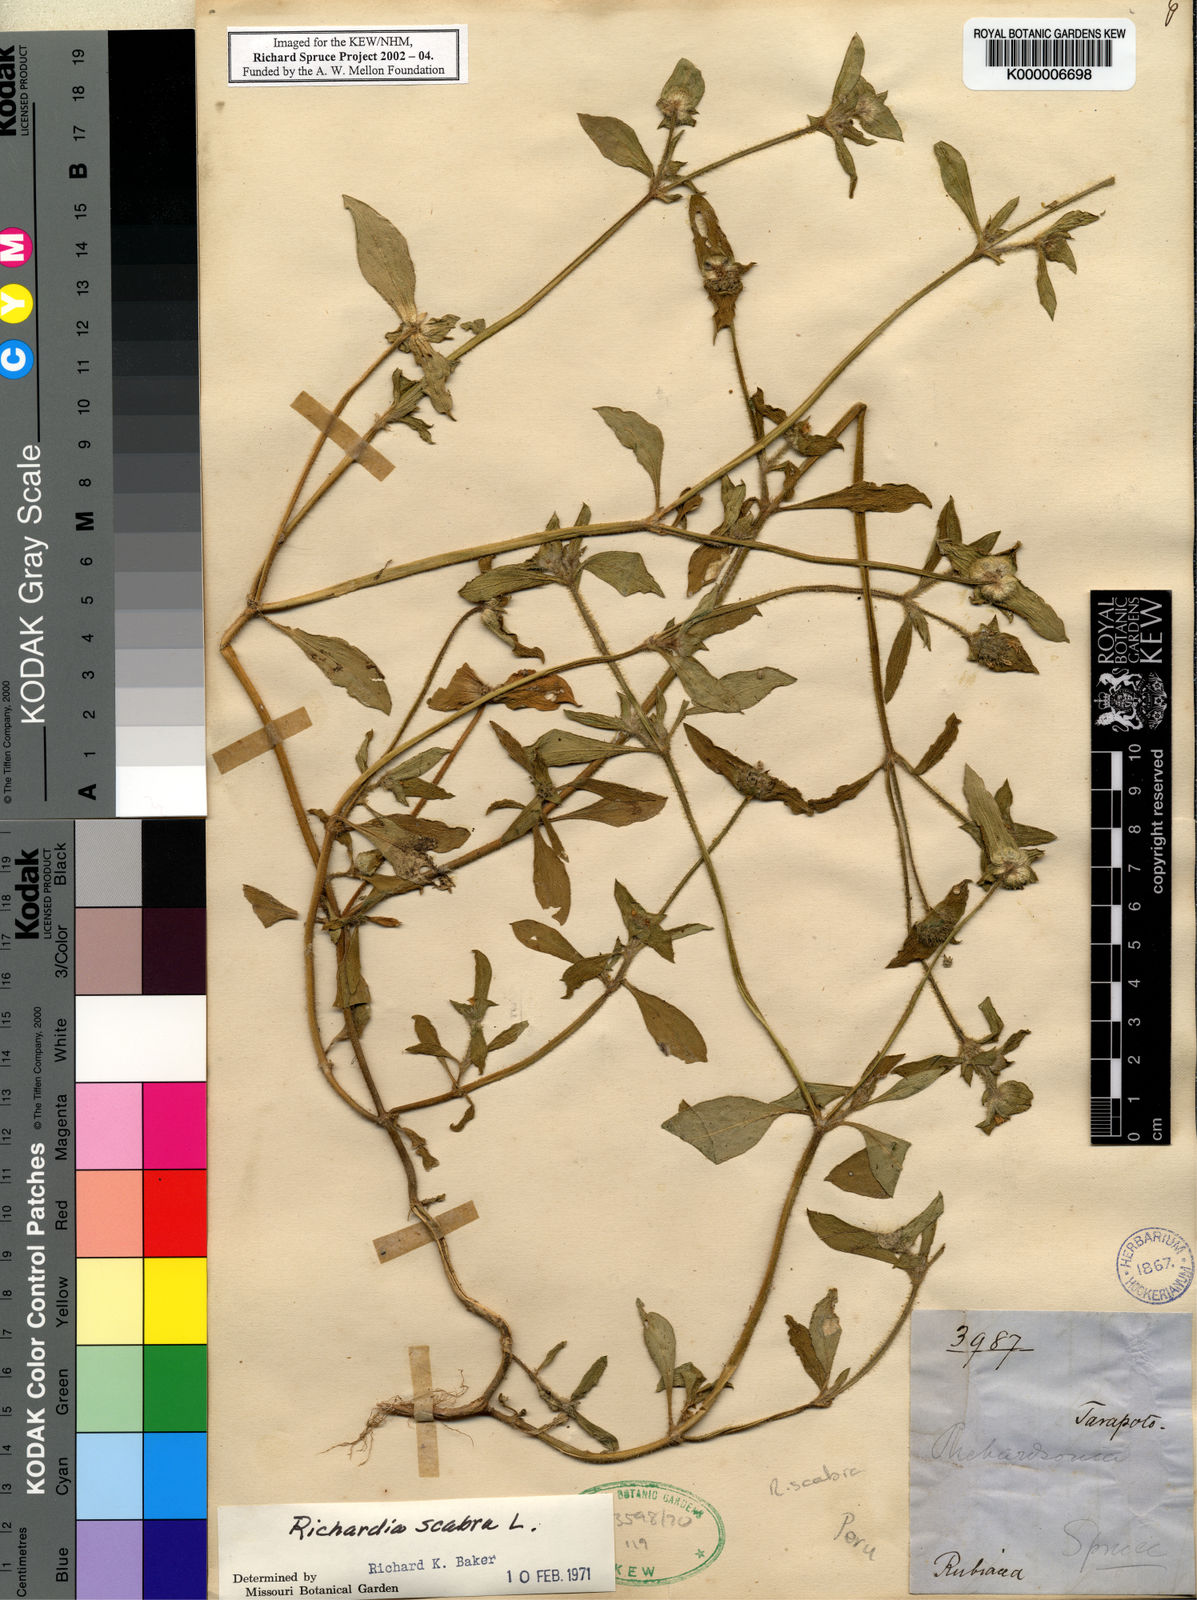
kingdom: Plantae
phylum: Tracheophyta
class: Magnoliopsida
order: Gentianales
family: Rubiaceae
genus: Richardia
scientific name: Richardia scabra
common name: Rough mexican clover
